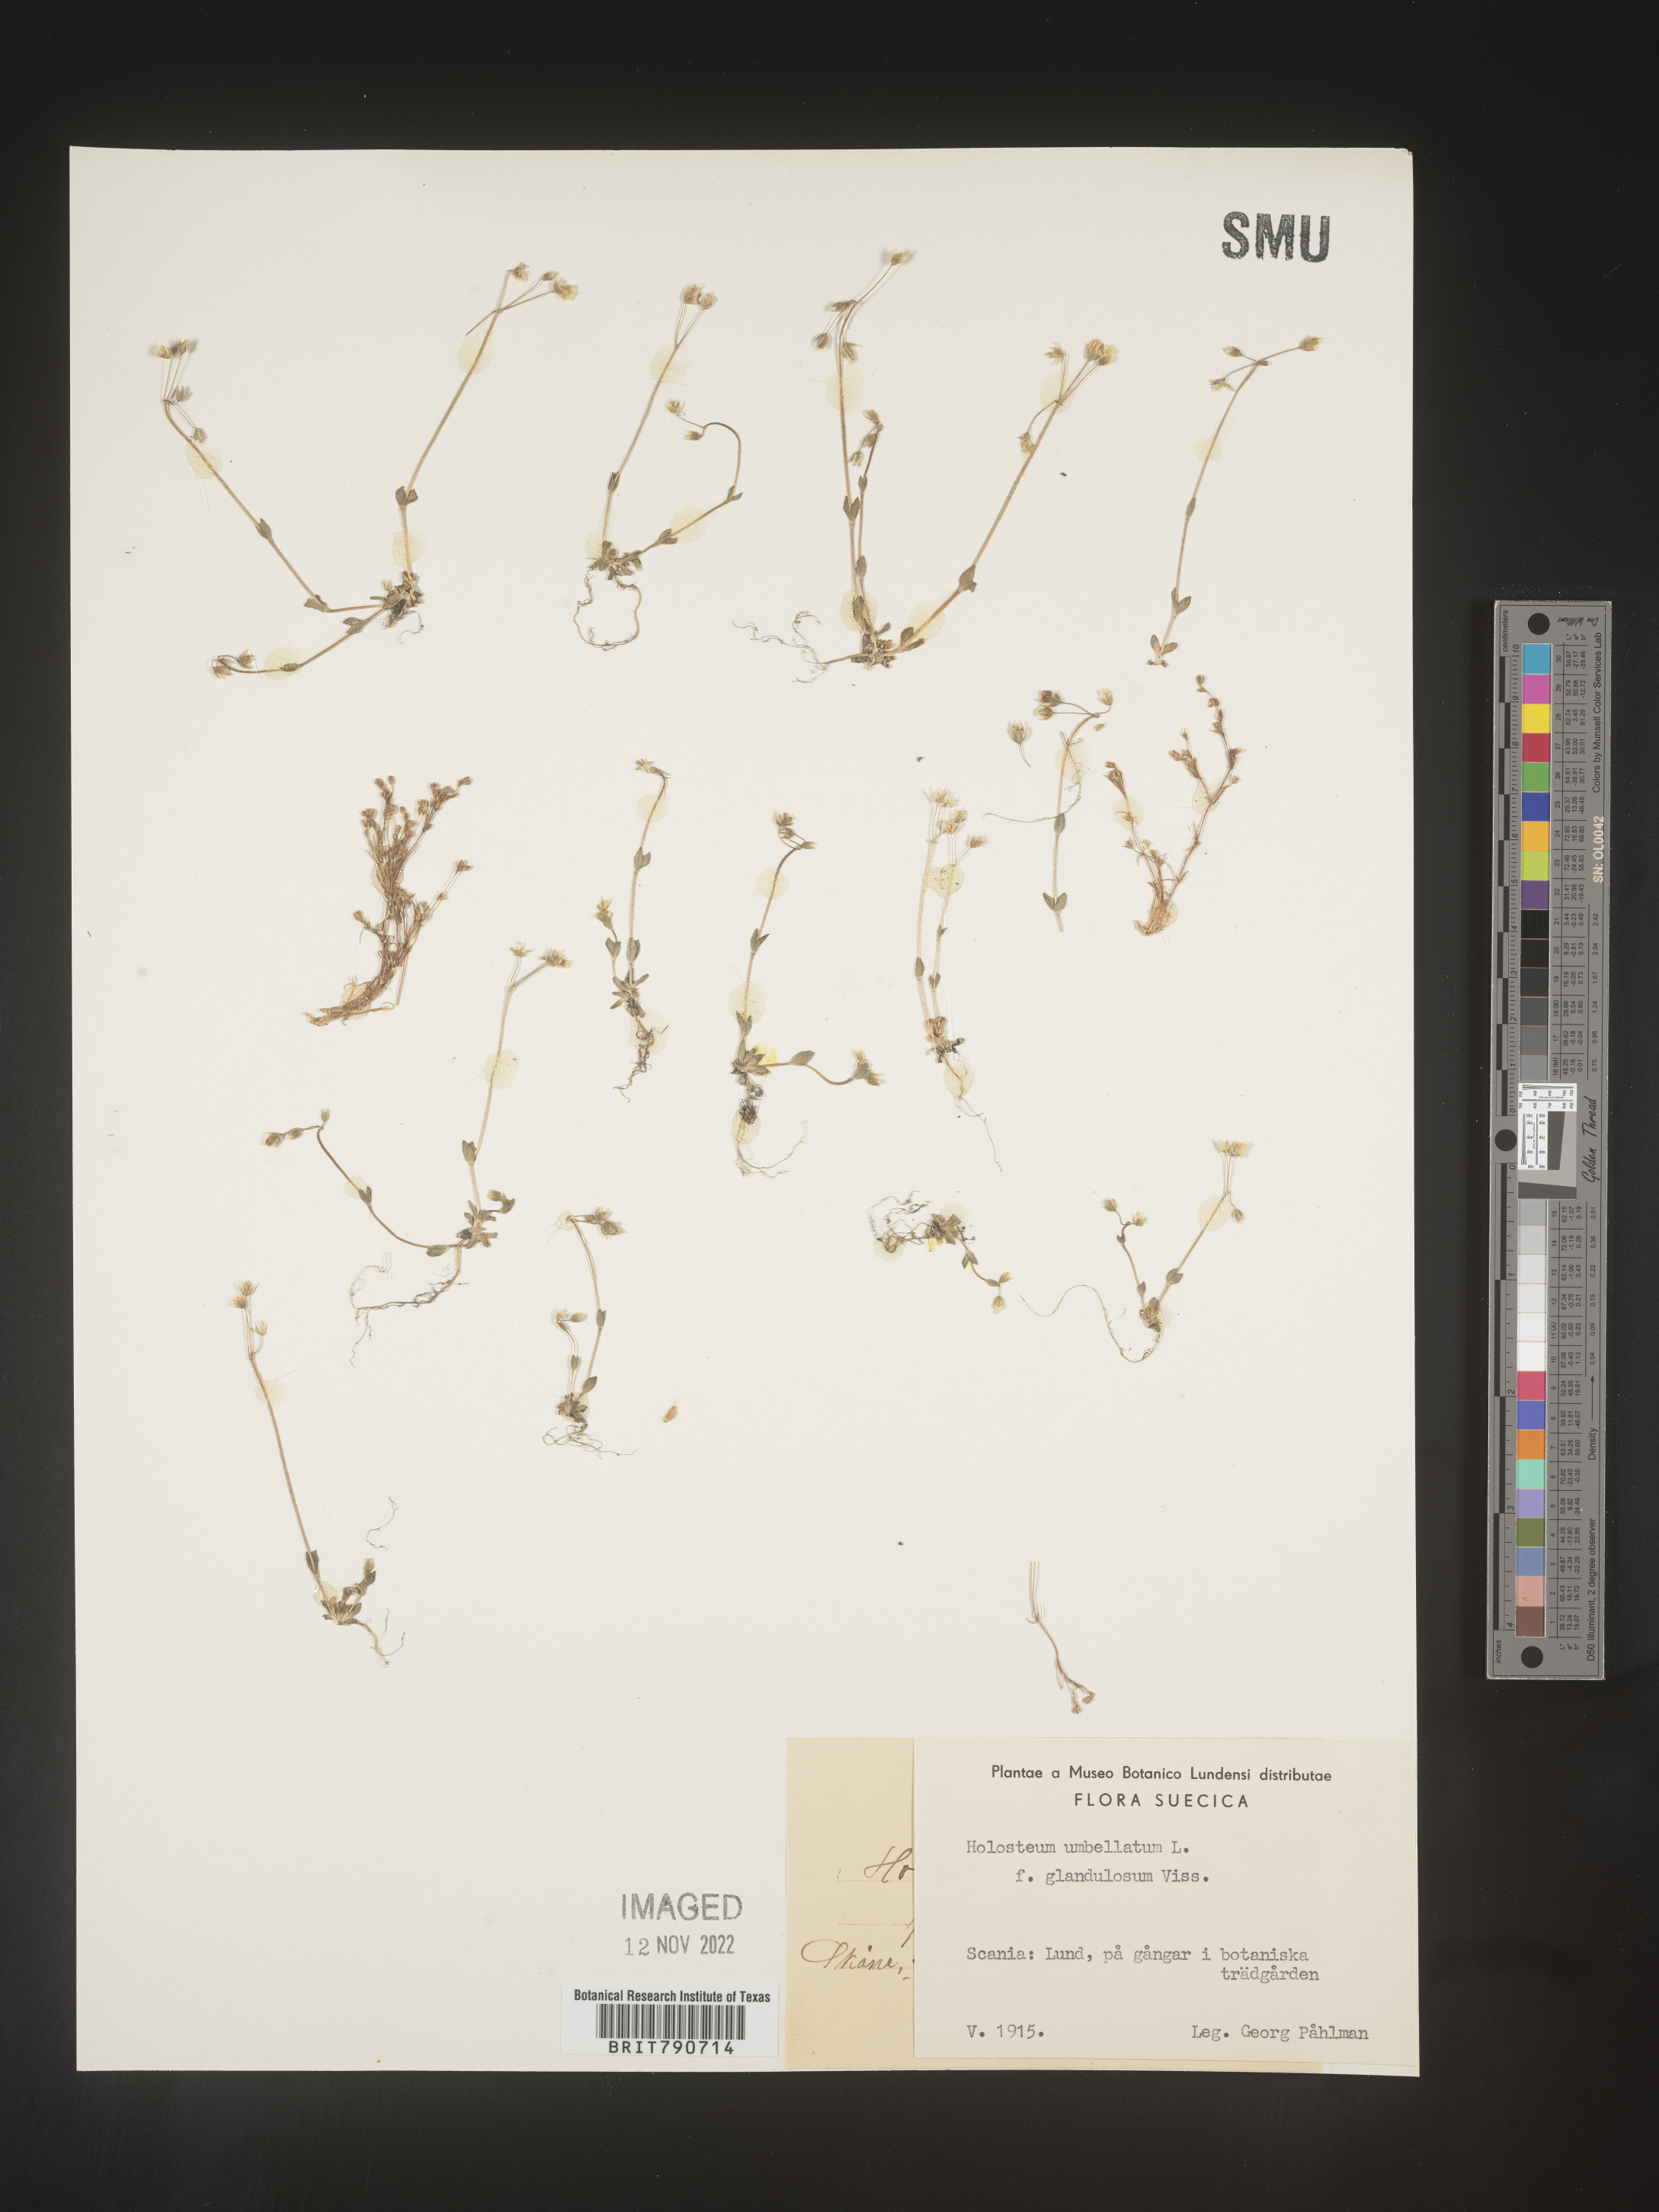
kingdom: Plantae
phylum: Tracheophyta
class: Magnoliopsida
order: Caryophyllales
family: Caryophyllaceae
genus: Holosteum
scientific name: Holosteum
